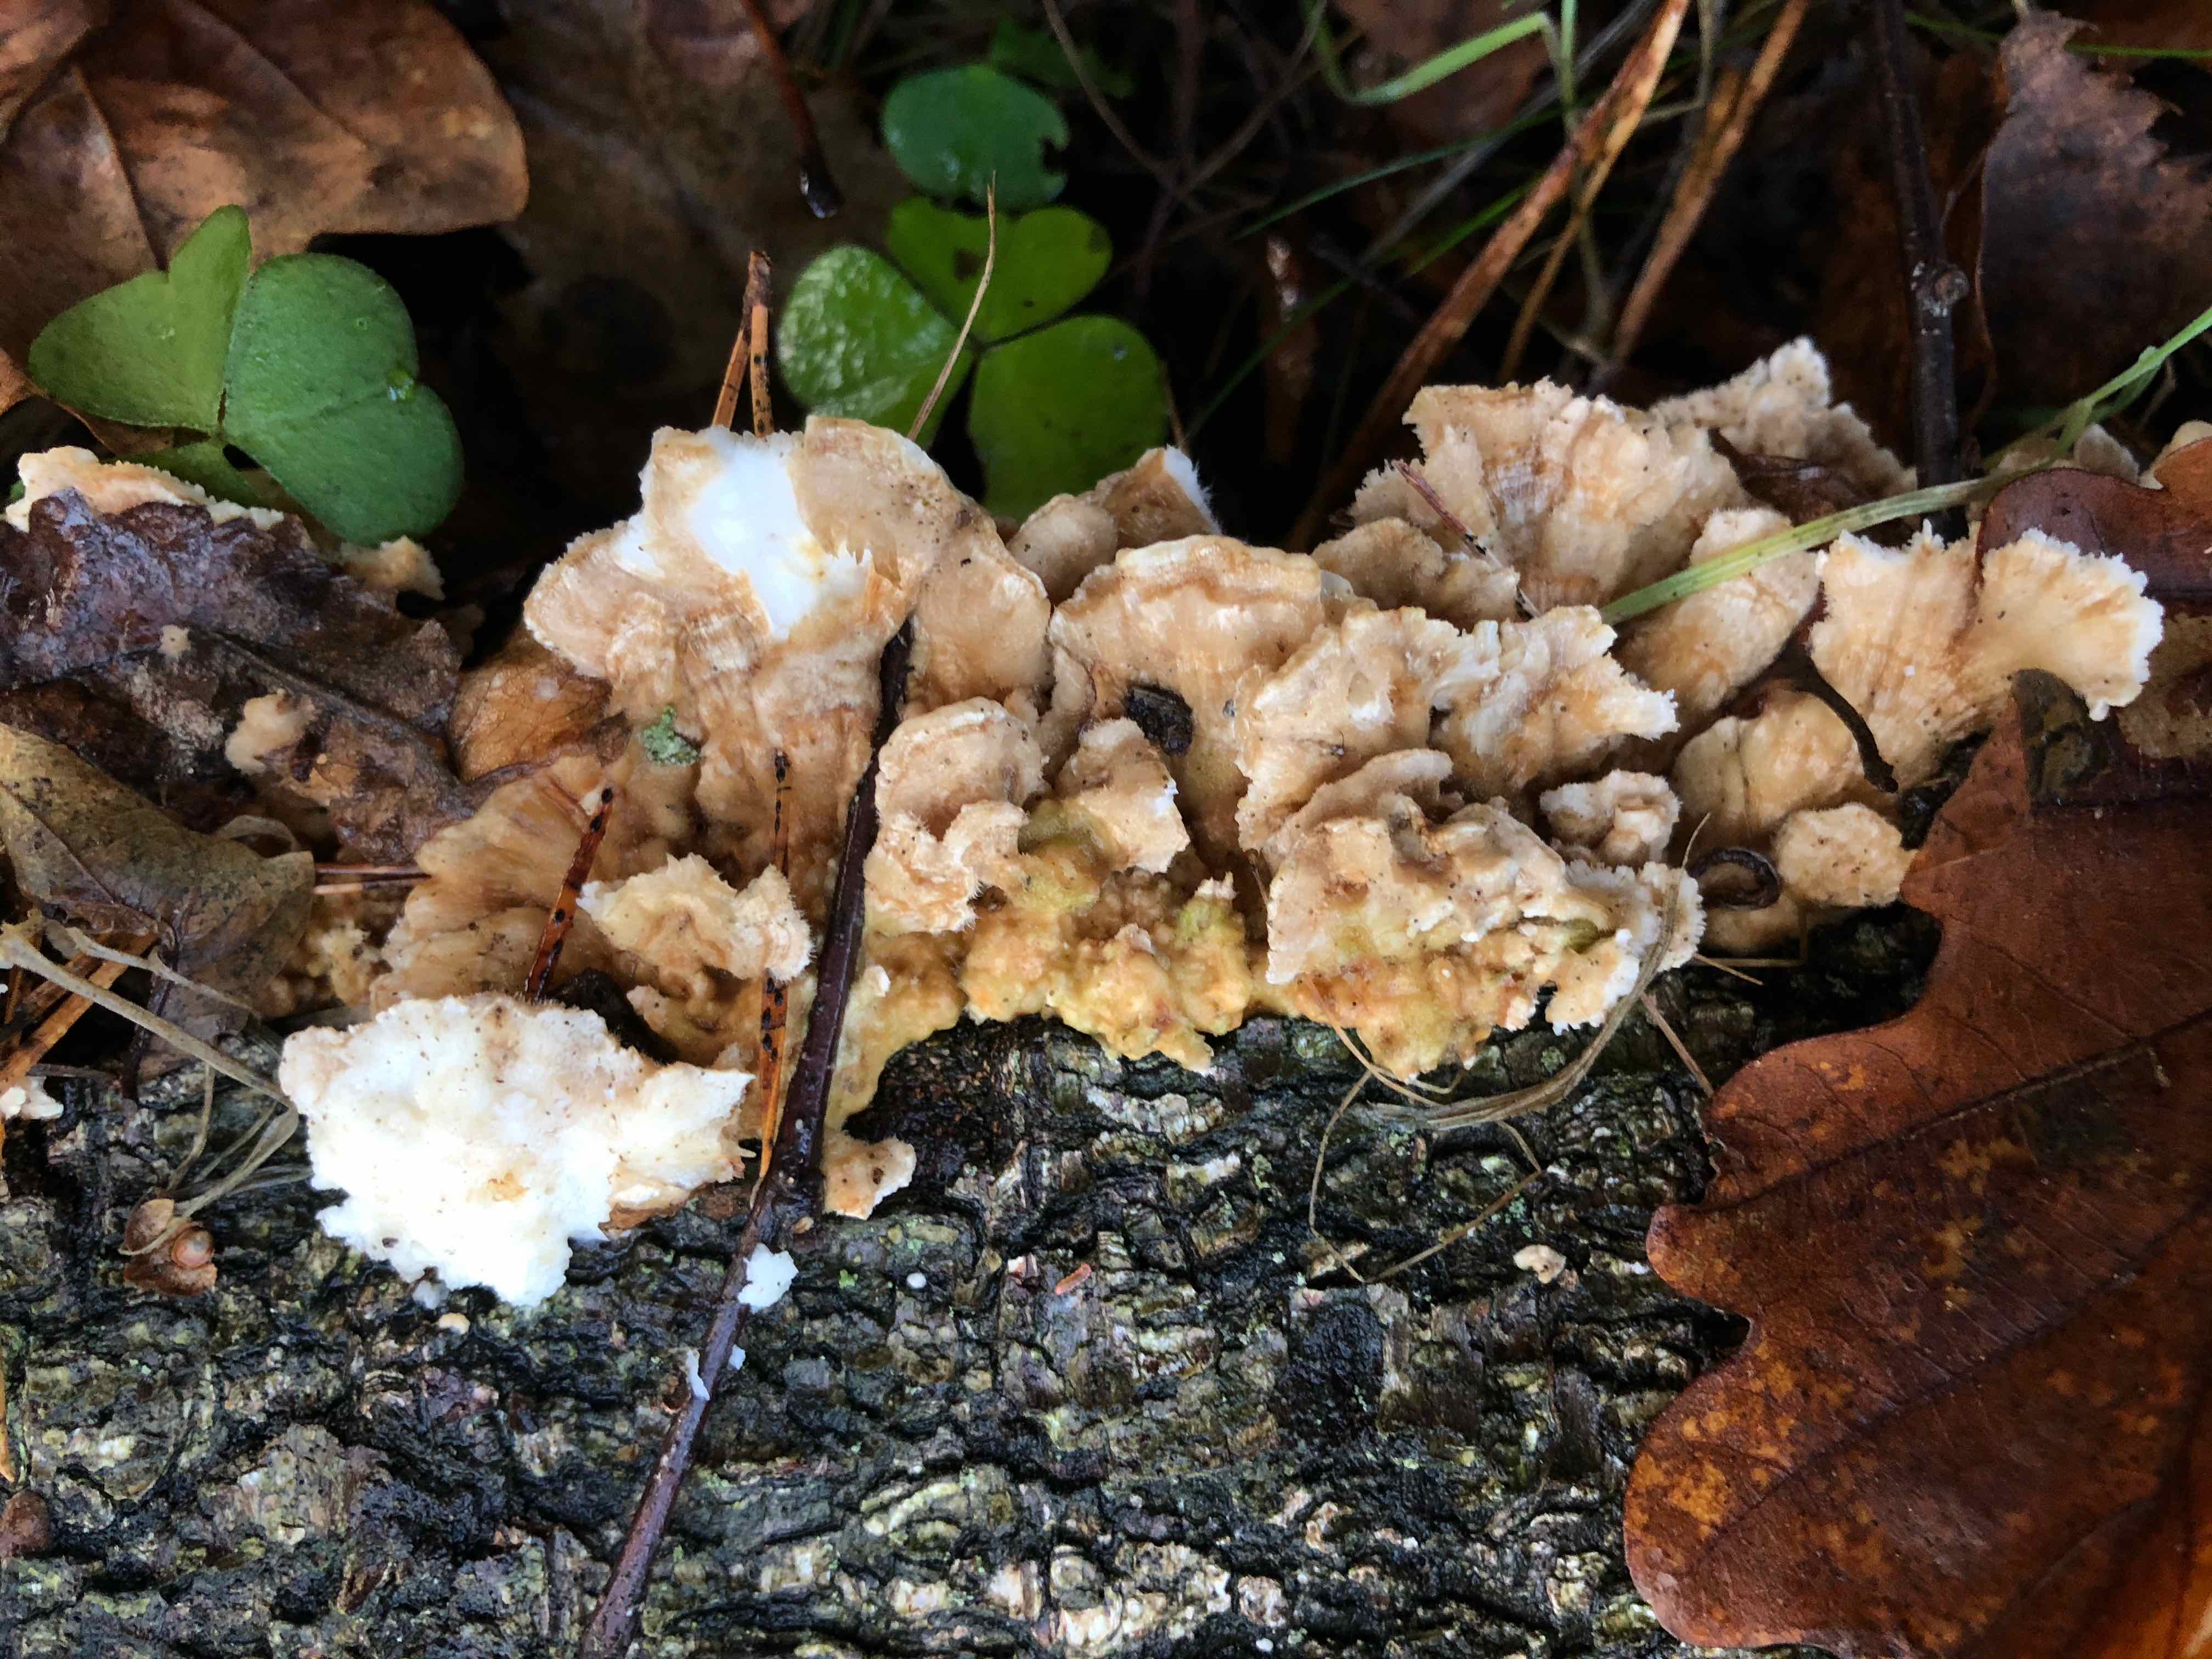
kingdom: Fungi
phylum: Basidiomycota
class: Agaricomycetes
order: Russulales
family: Stereaceae
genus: Stereum
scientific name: Stereum hirsutum
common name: håret lædersvamp
